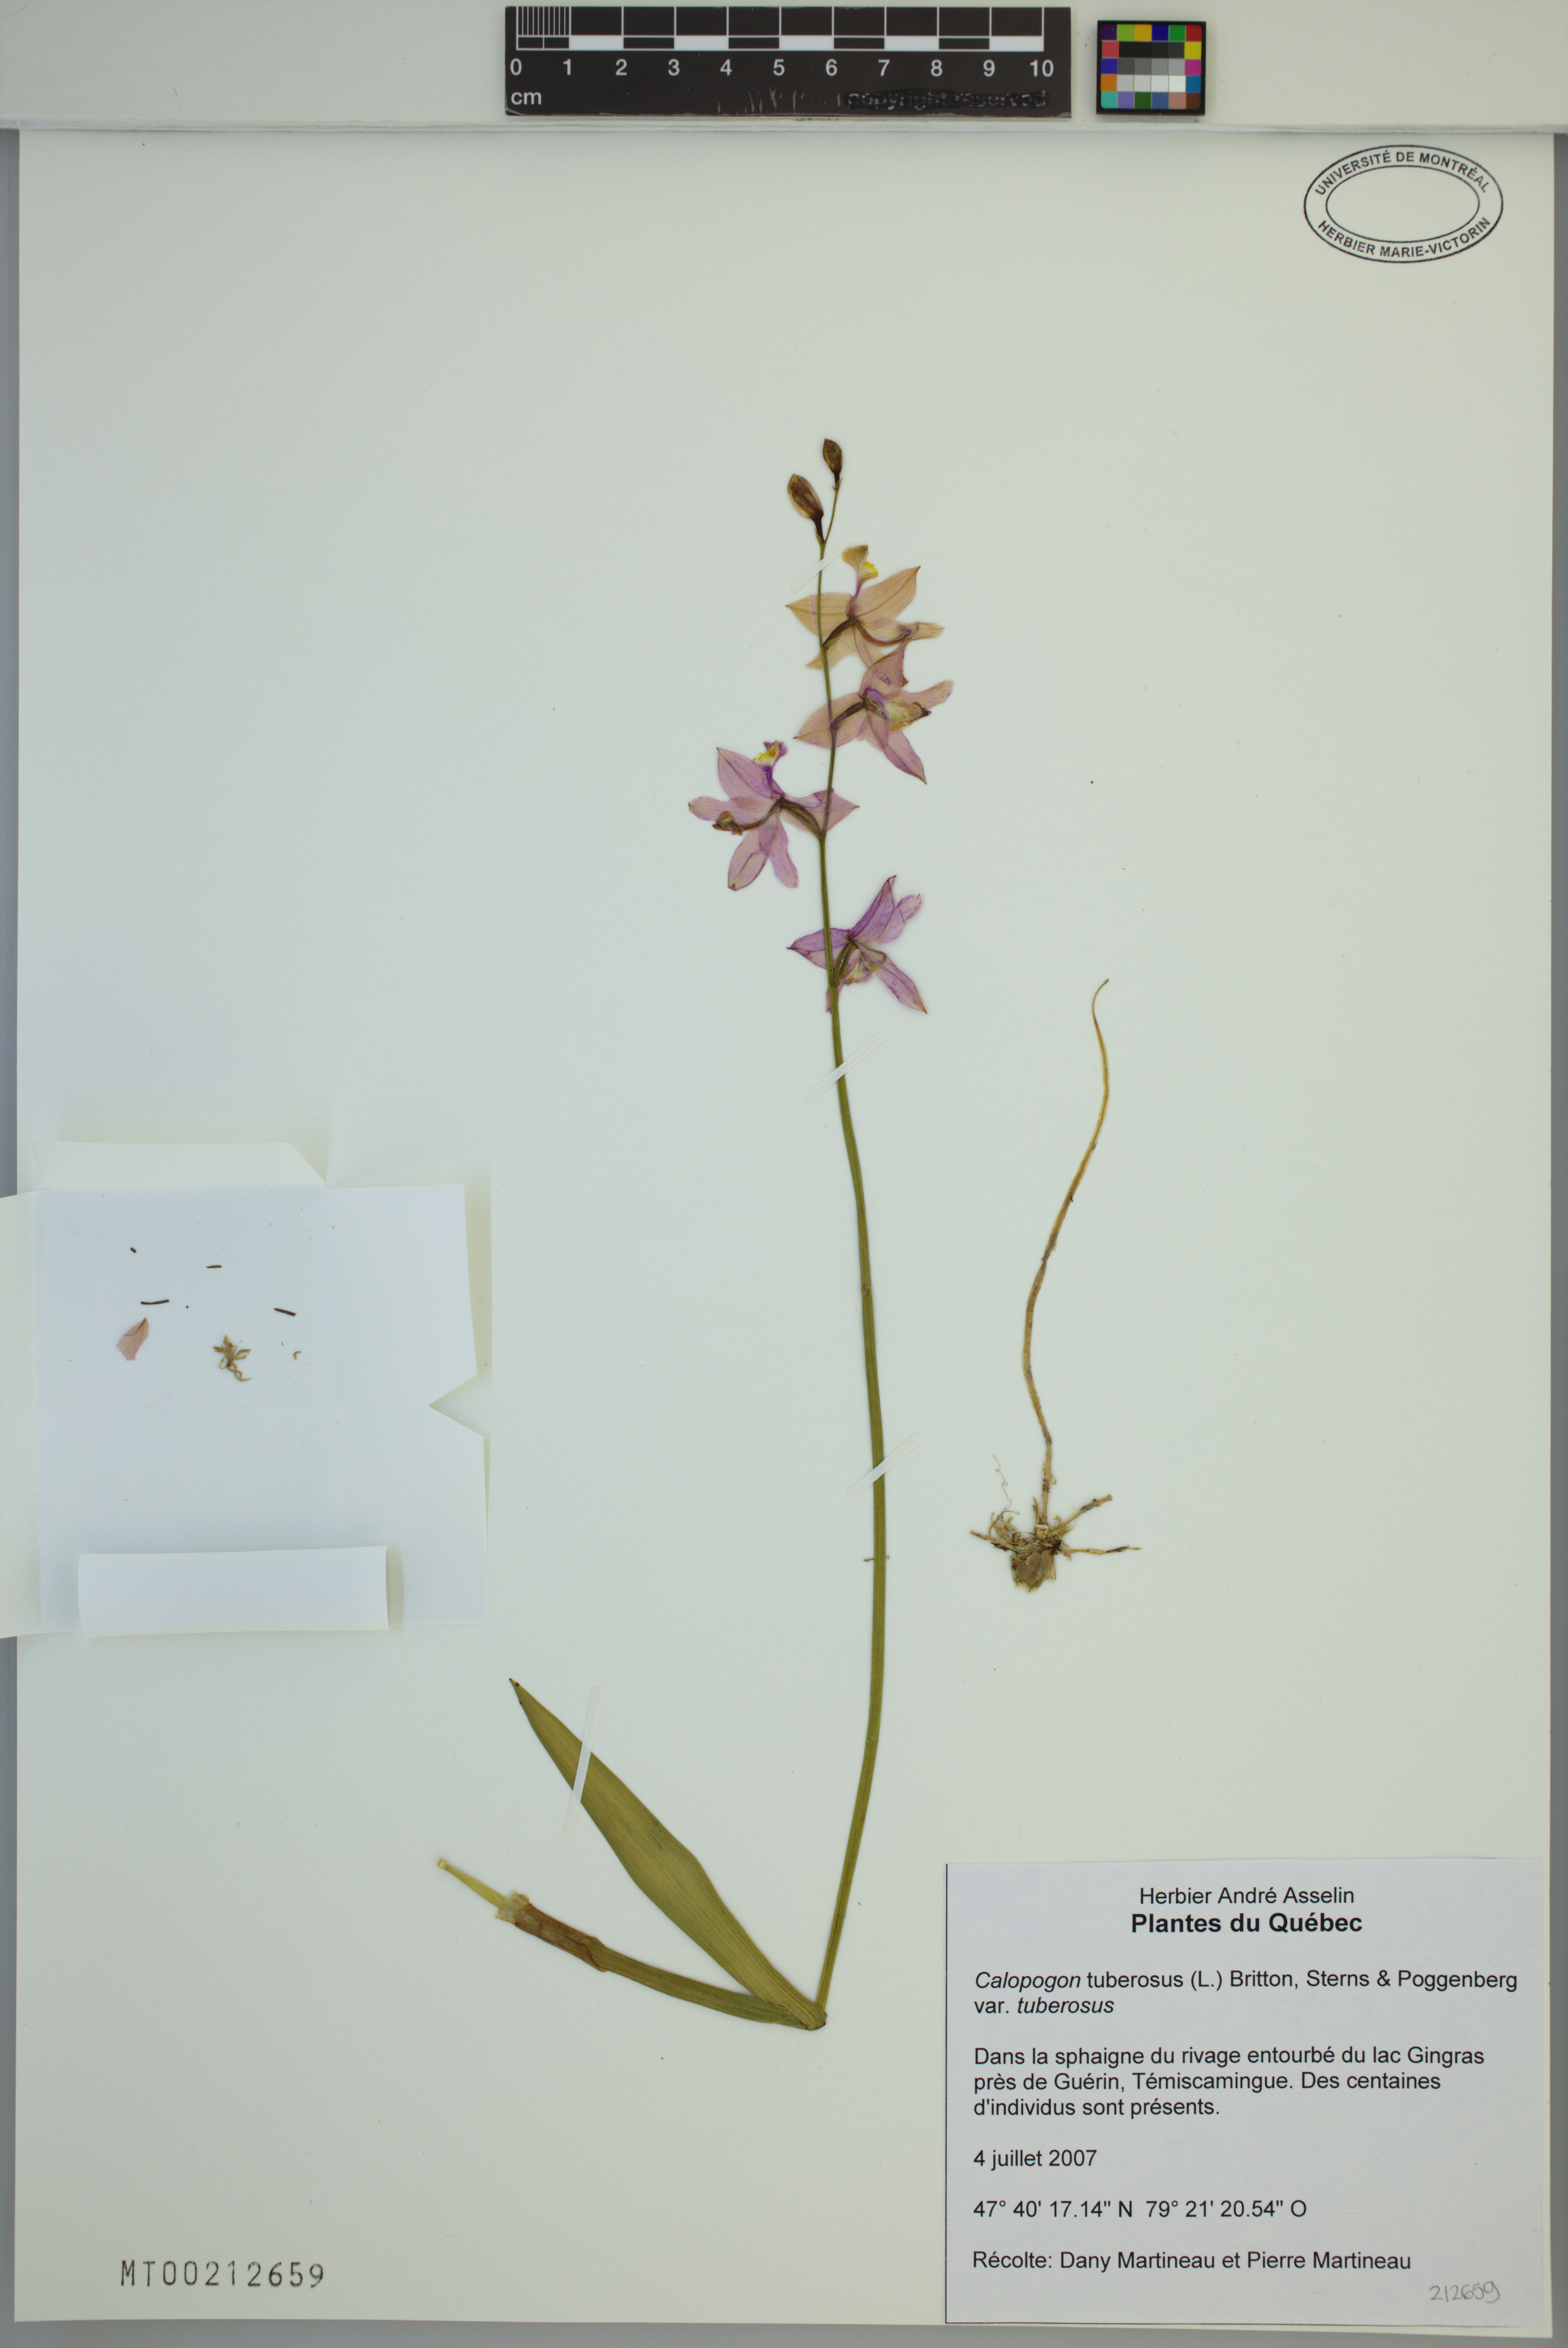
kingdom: Plantae
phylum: Tracheophyta
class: Liliopsida
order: Asparagales
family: Orchidaceae
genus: Calopogon
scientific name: Calopogon tuberosus
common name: Grass-pink
